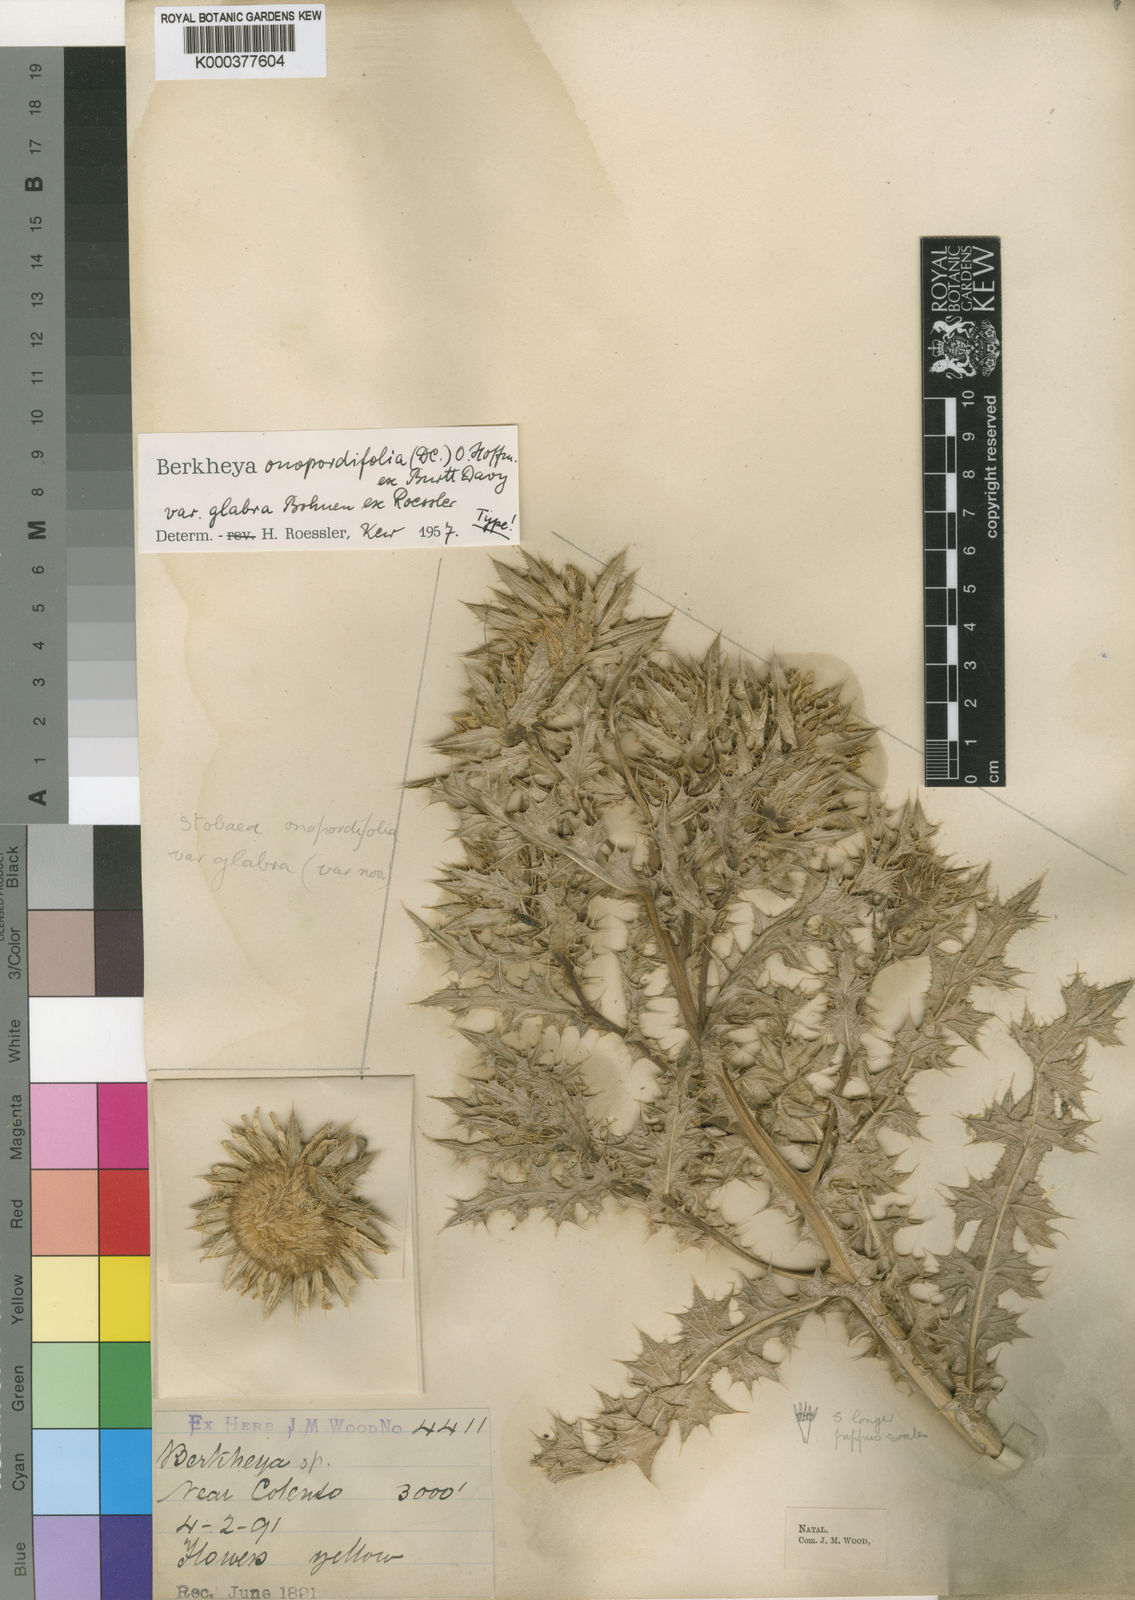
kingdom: Plantae
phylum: Tracheophyta
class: Magnoliopsida
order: Asterales
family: Asteraceae
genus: Berkheya
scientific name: Berkheya onopordifolia
